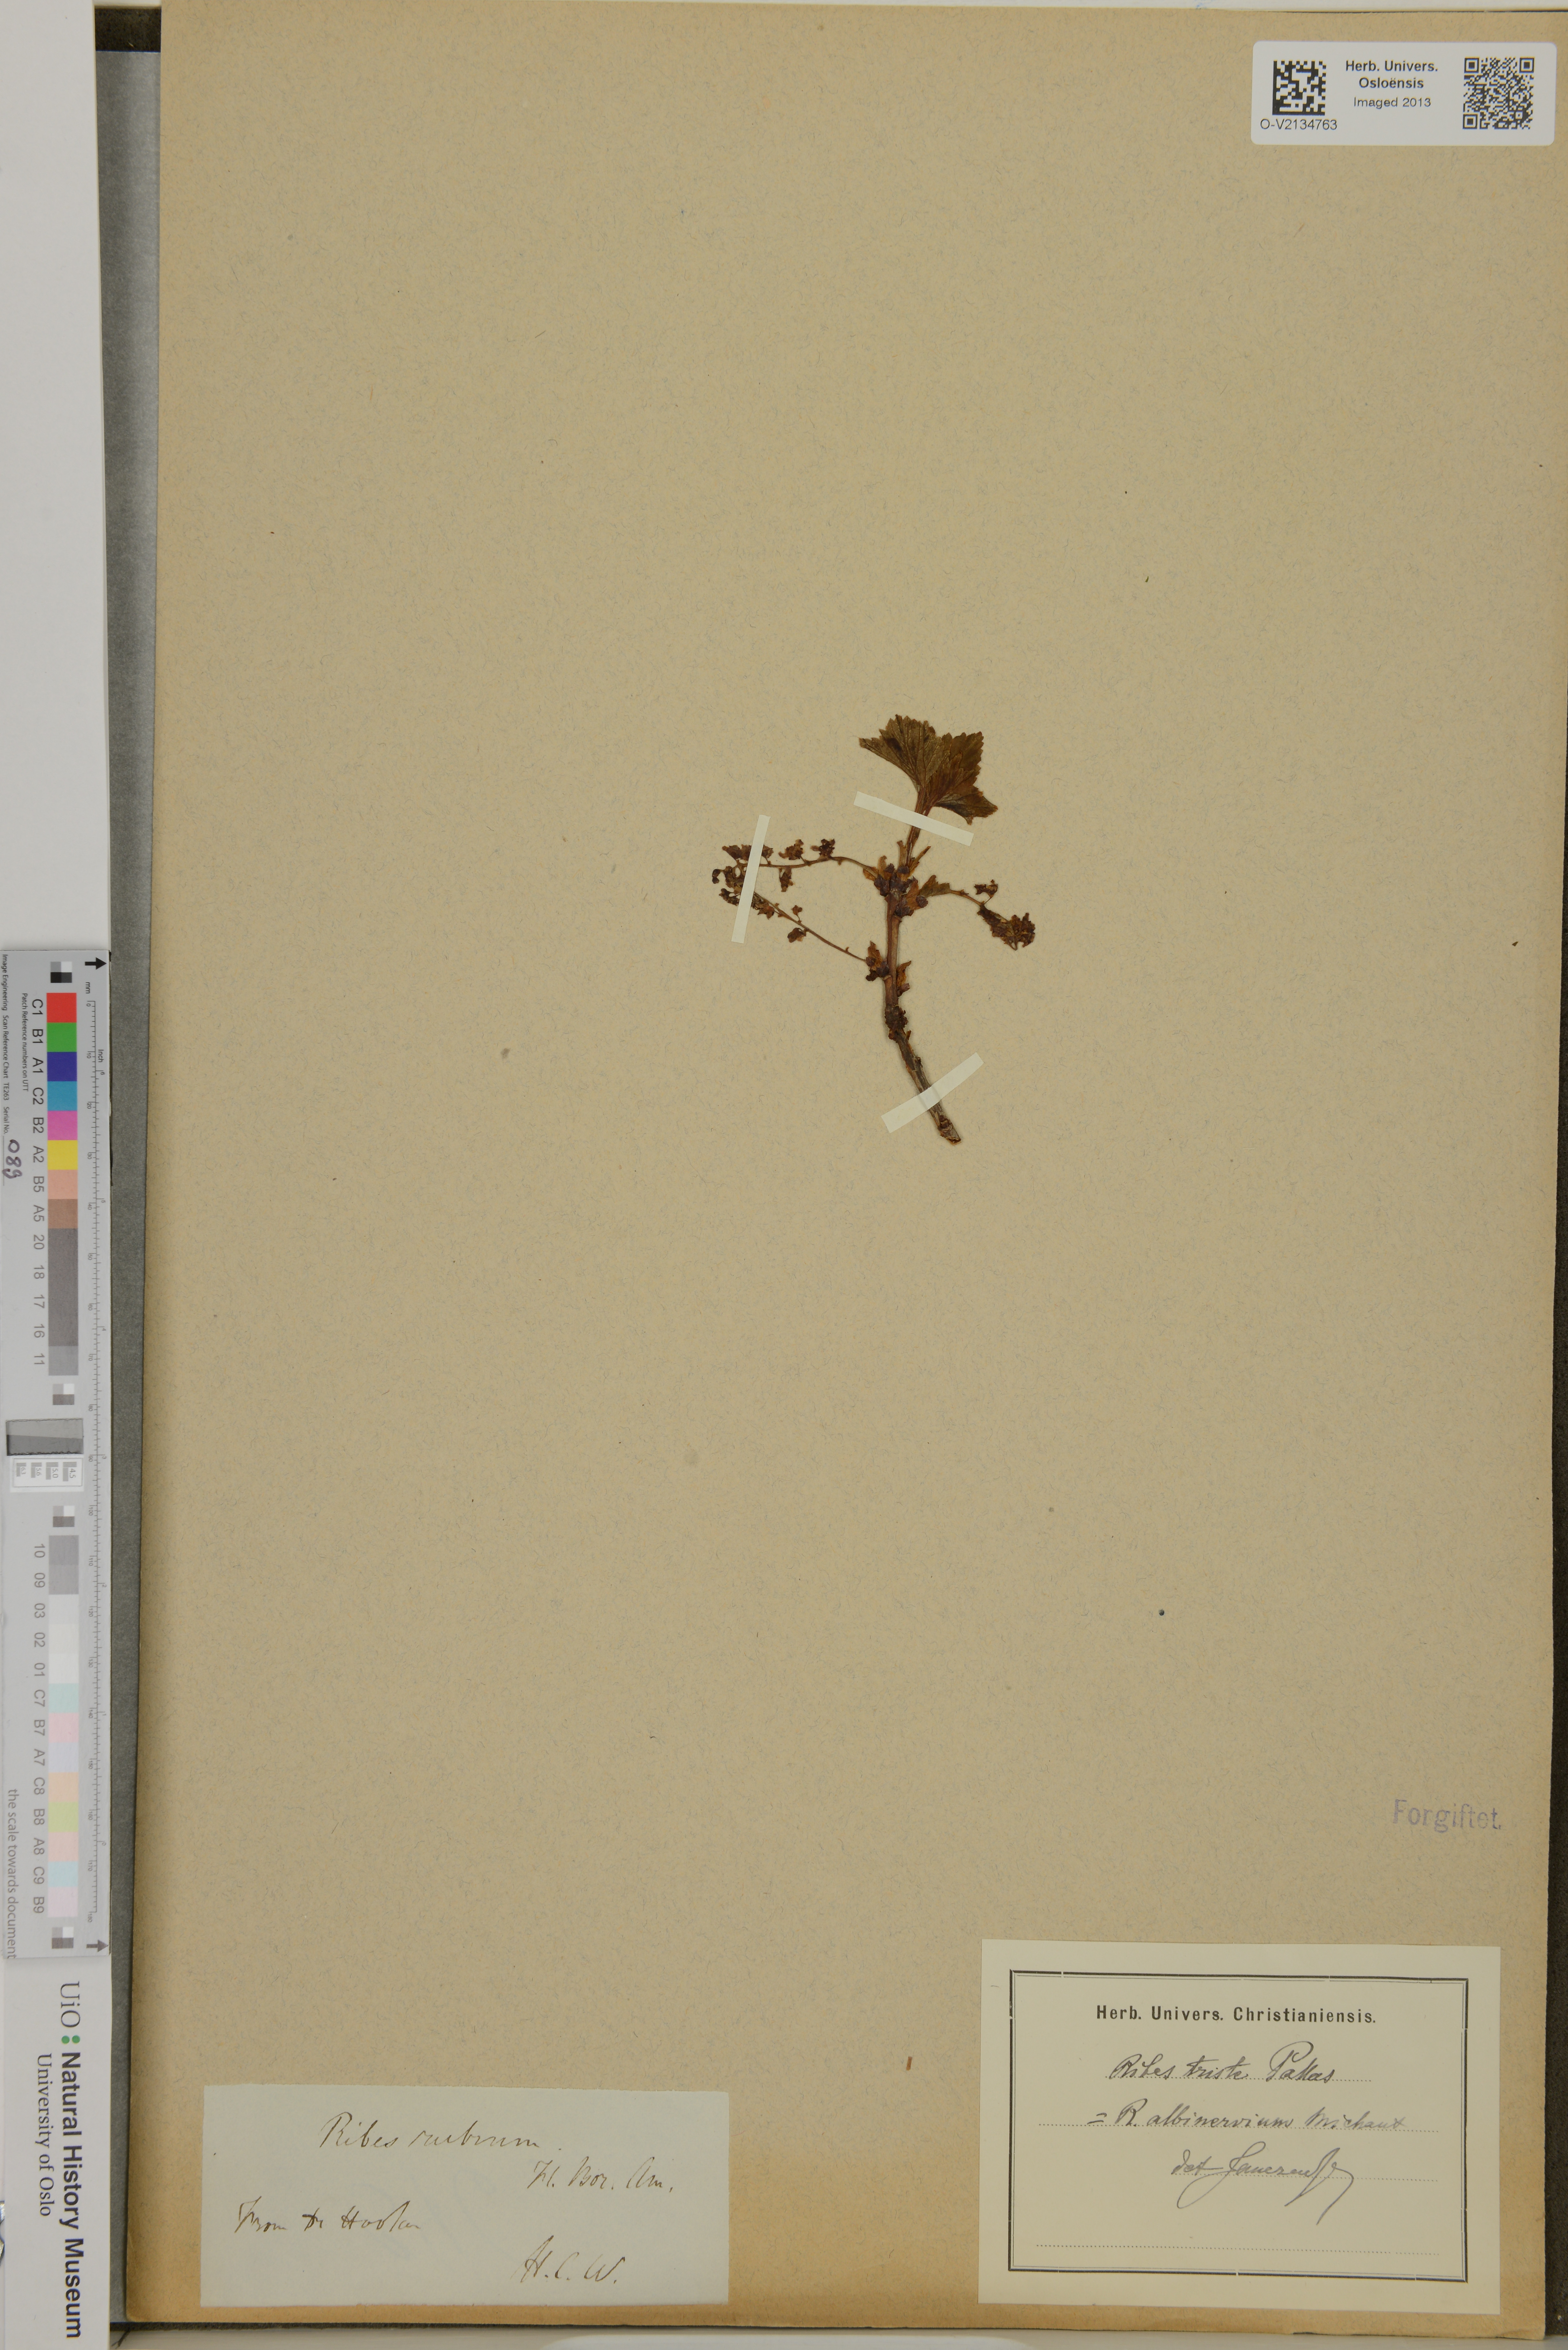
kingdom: Plantae
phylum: Tracheophyta
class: Magnoliopsida
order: Saxifragales
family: Grossulariaceae
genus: Ribes
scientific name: Ribes triste
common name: Swamp red currant
